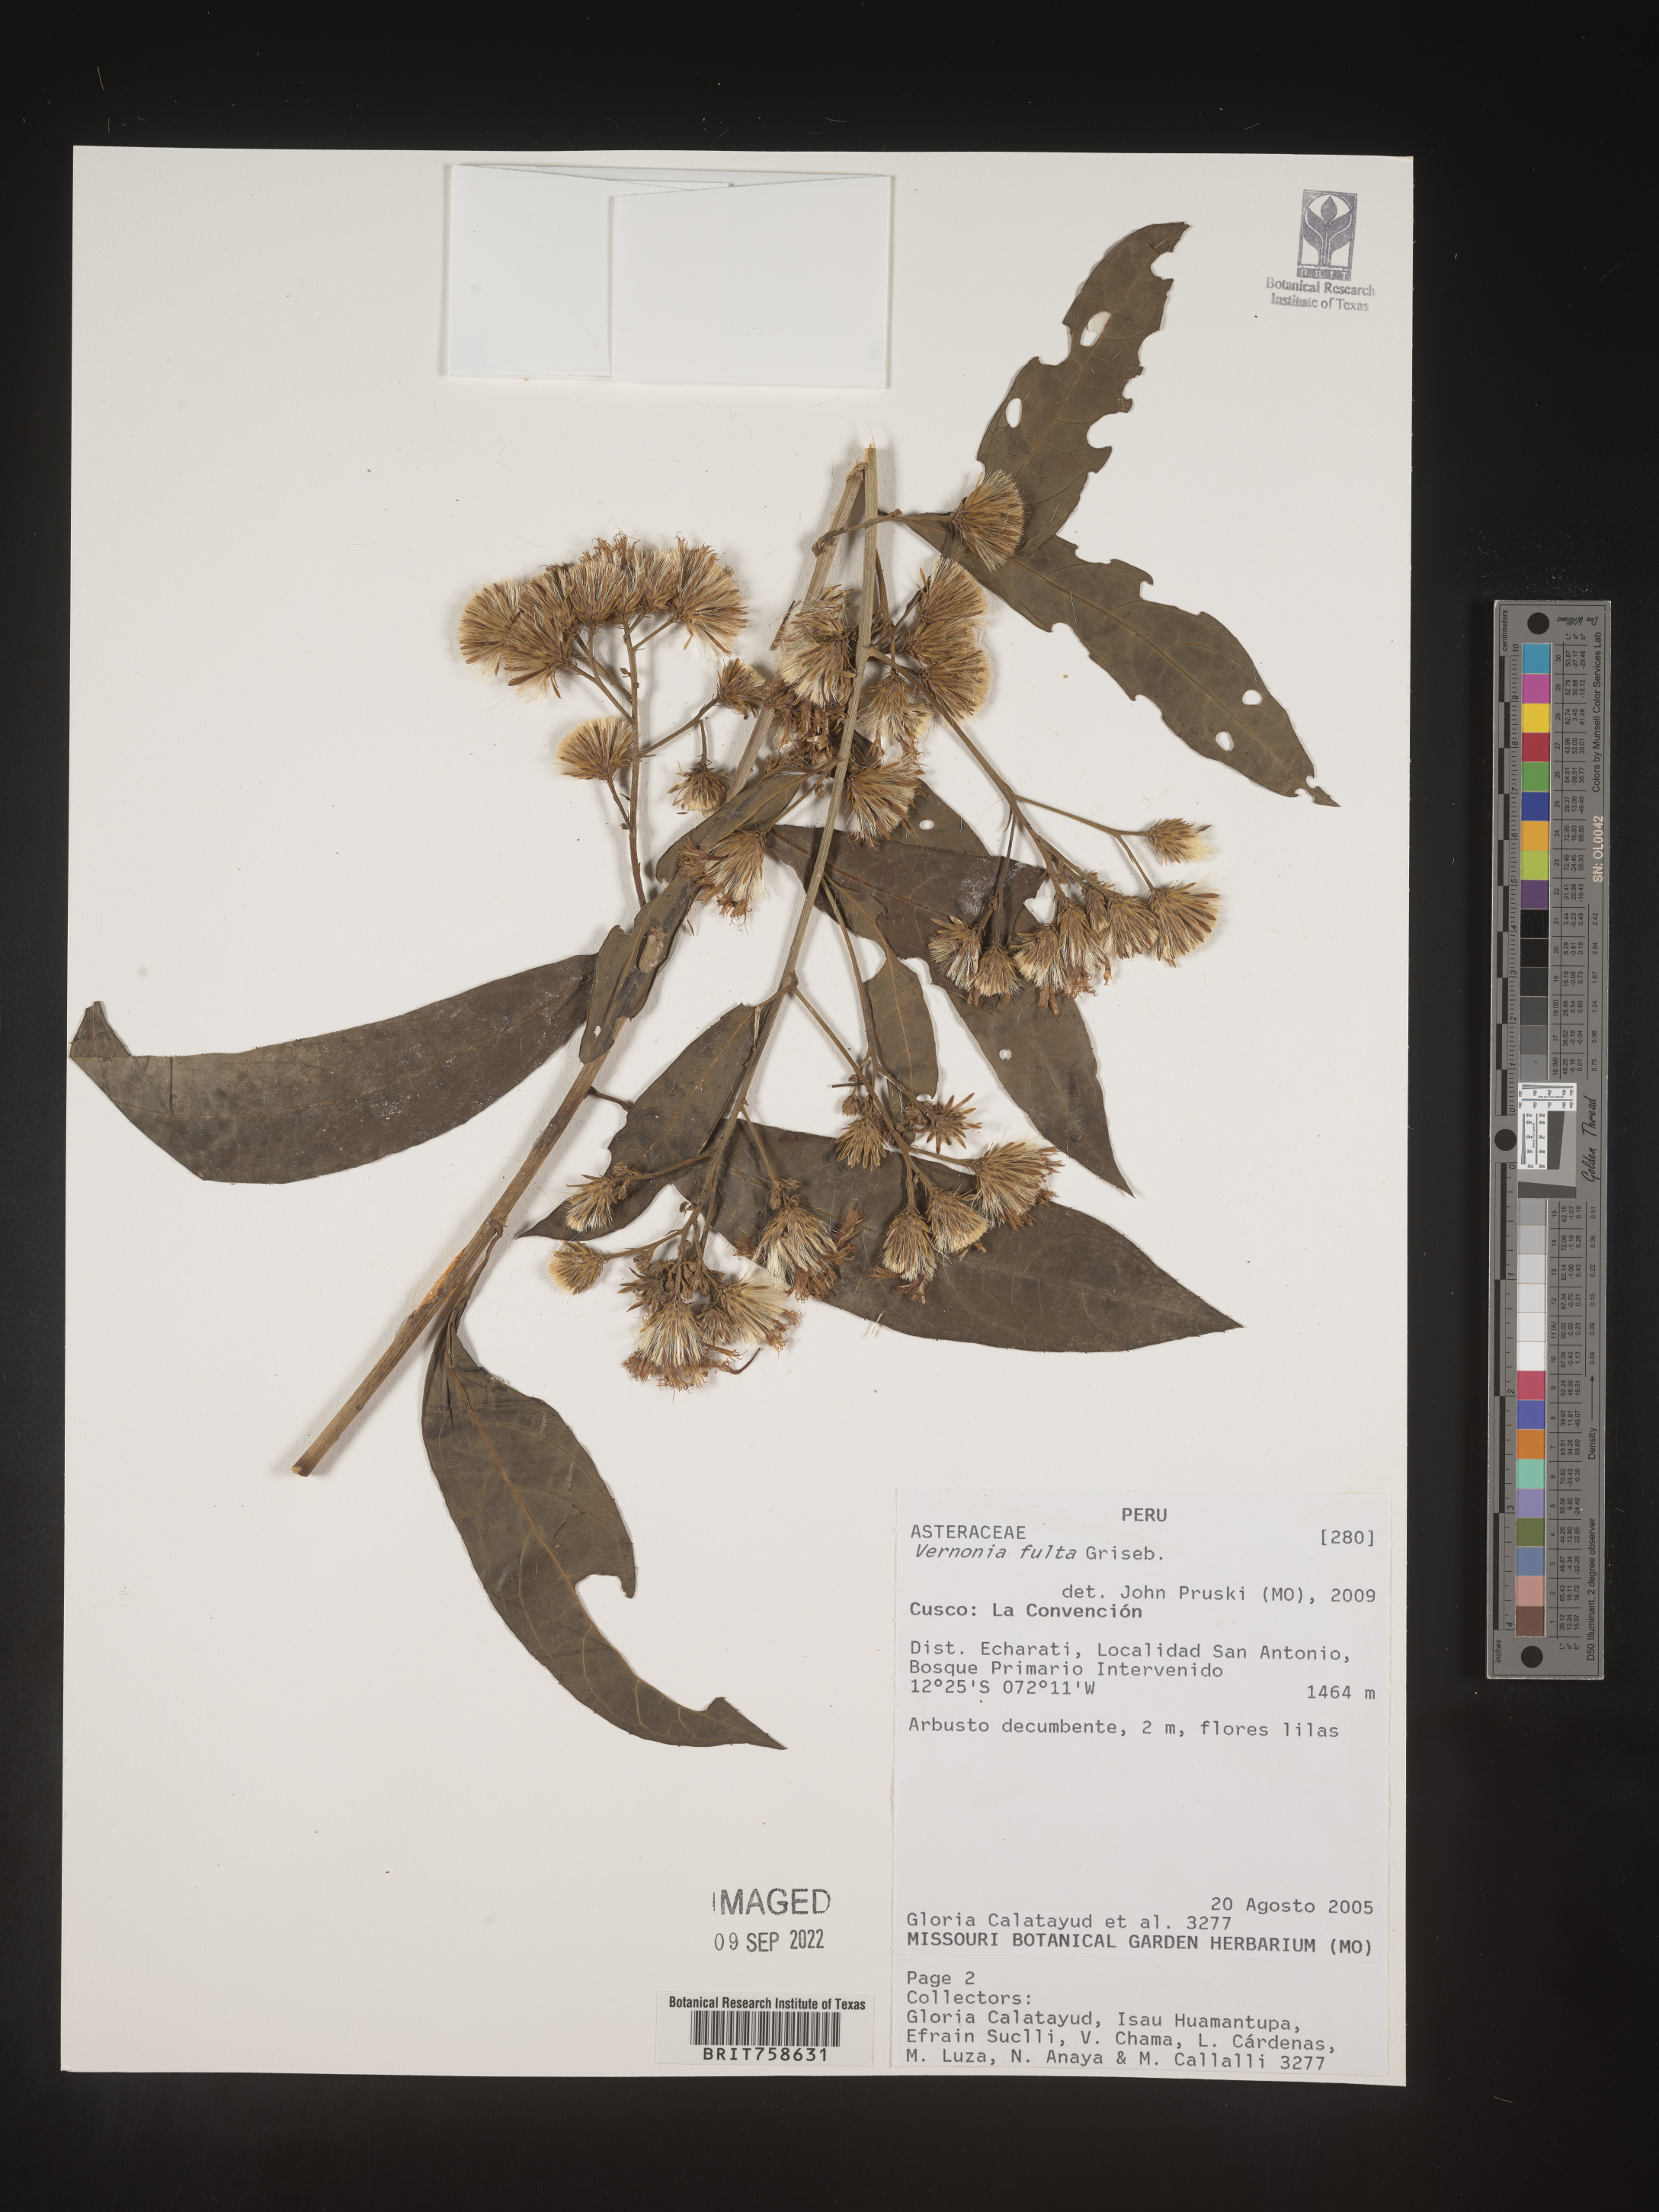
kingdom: Plantae
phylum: Tracheophyta
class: Magnoliopsida
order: Asterales
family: Asteraceae
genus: Vernonia
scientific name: Vernonia
